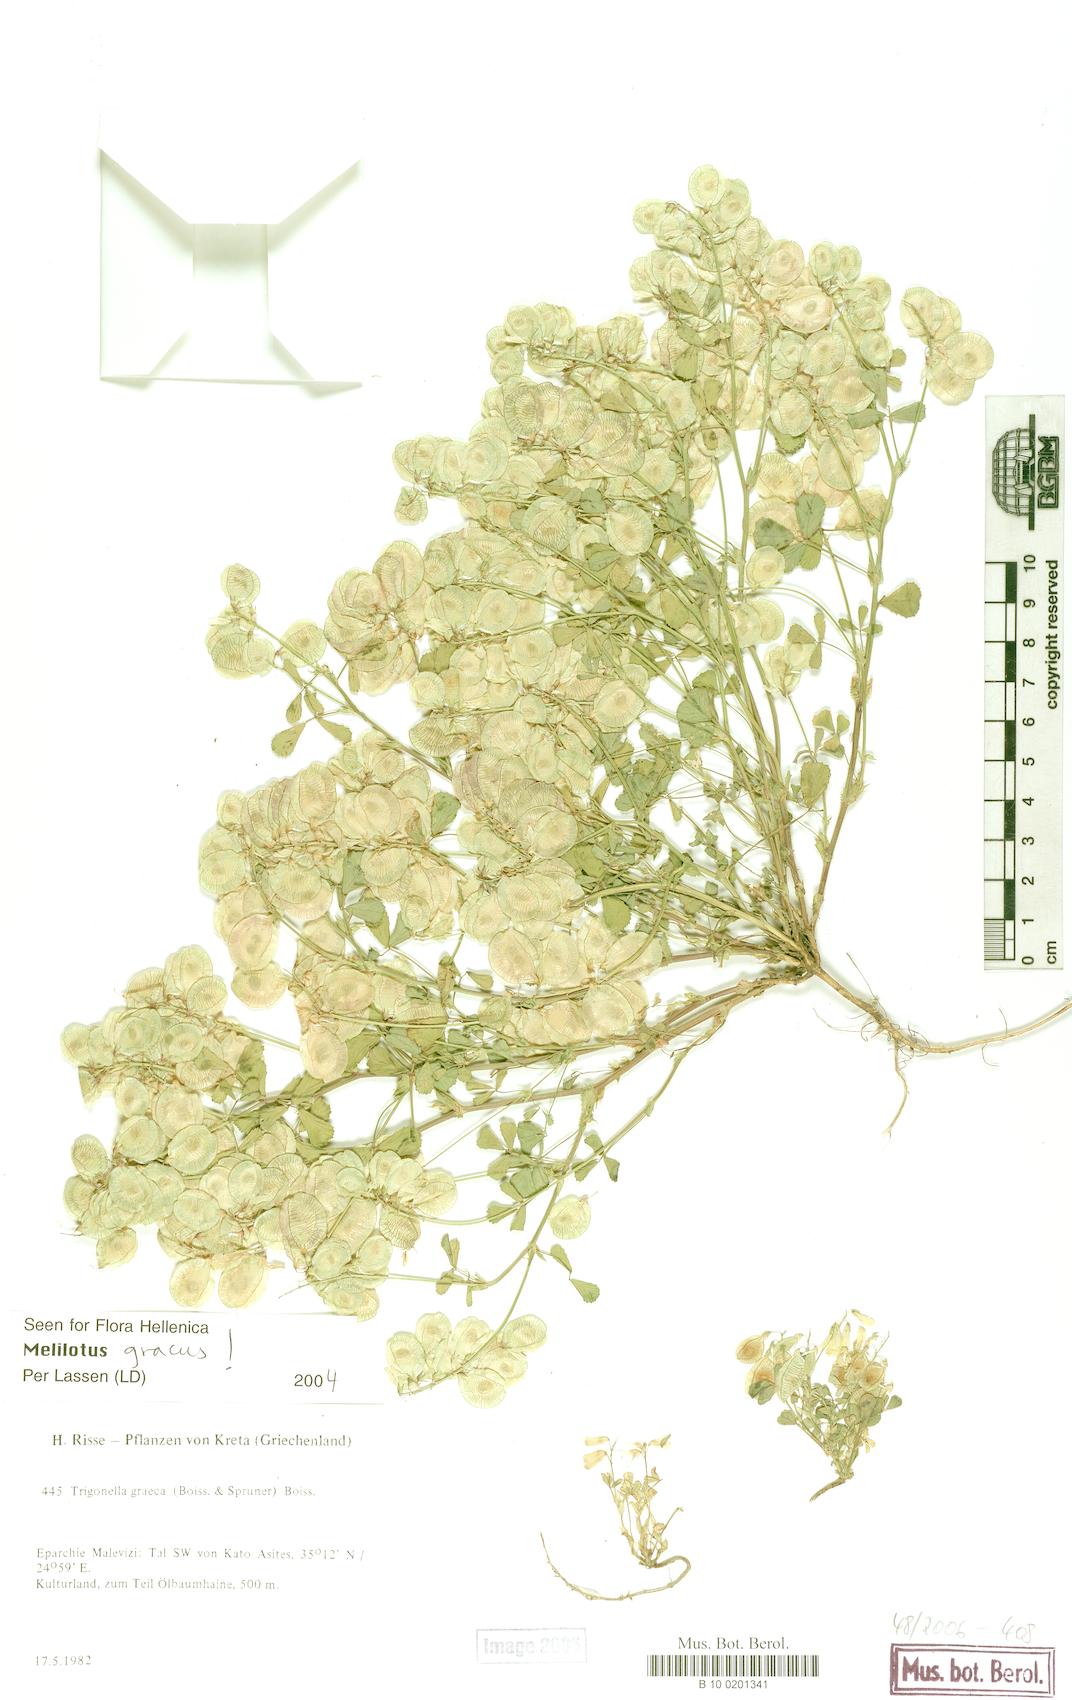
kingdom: Plantae
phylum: Tracheophyta
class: Magnoliopsida
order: Fabales
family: Fabaceae
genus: Trigonella
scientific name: Trigonella graeca
